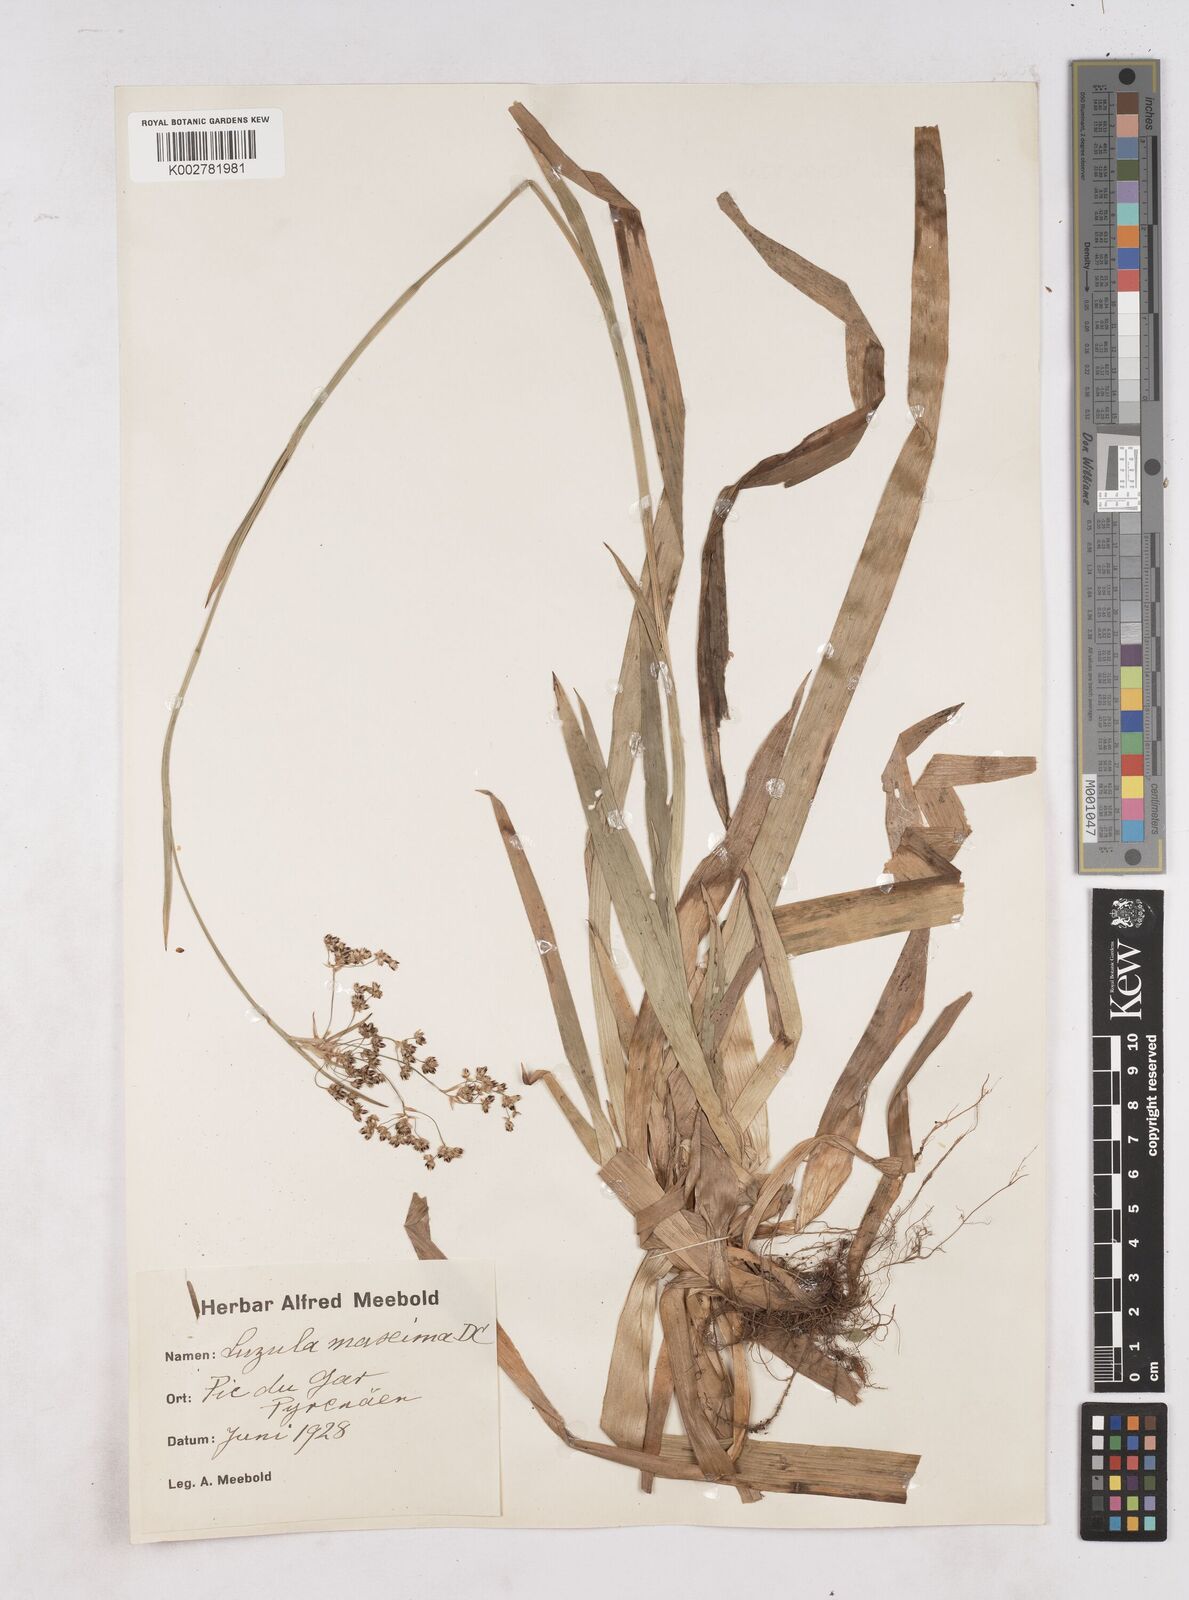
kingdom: Plantae
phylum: Tracheophyta
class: Liliopsida
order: Poales
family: Juncaceae
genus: Luzula
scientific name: Luzula sylvatica
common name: Great wood-rush
